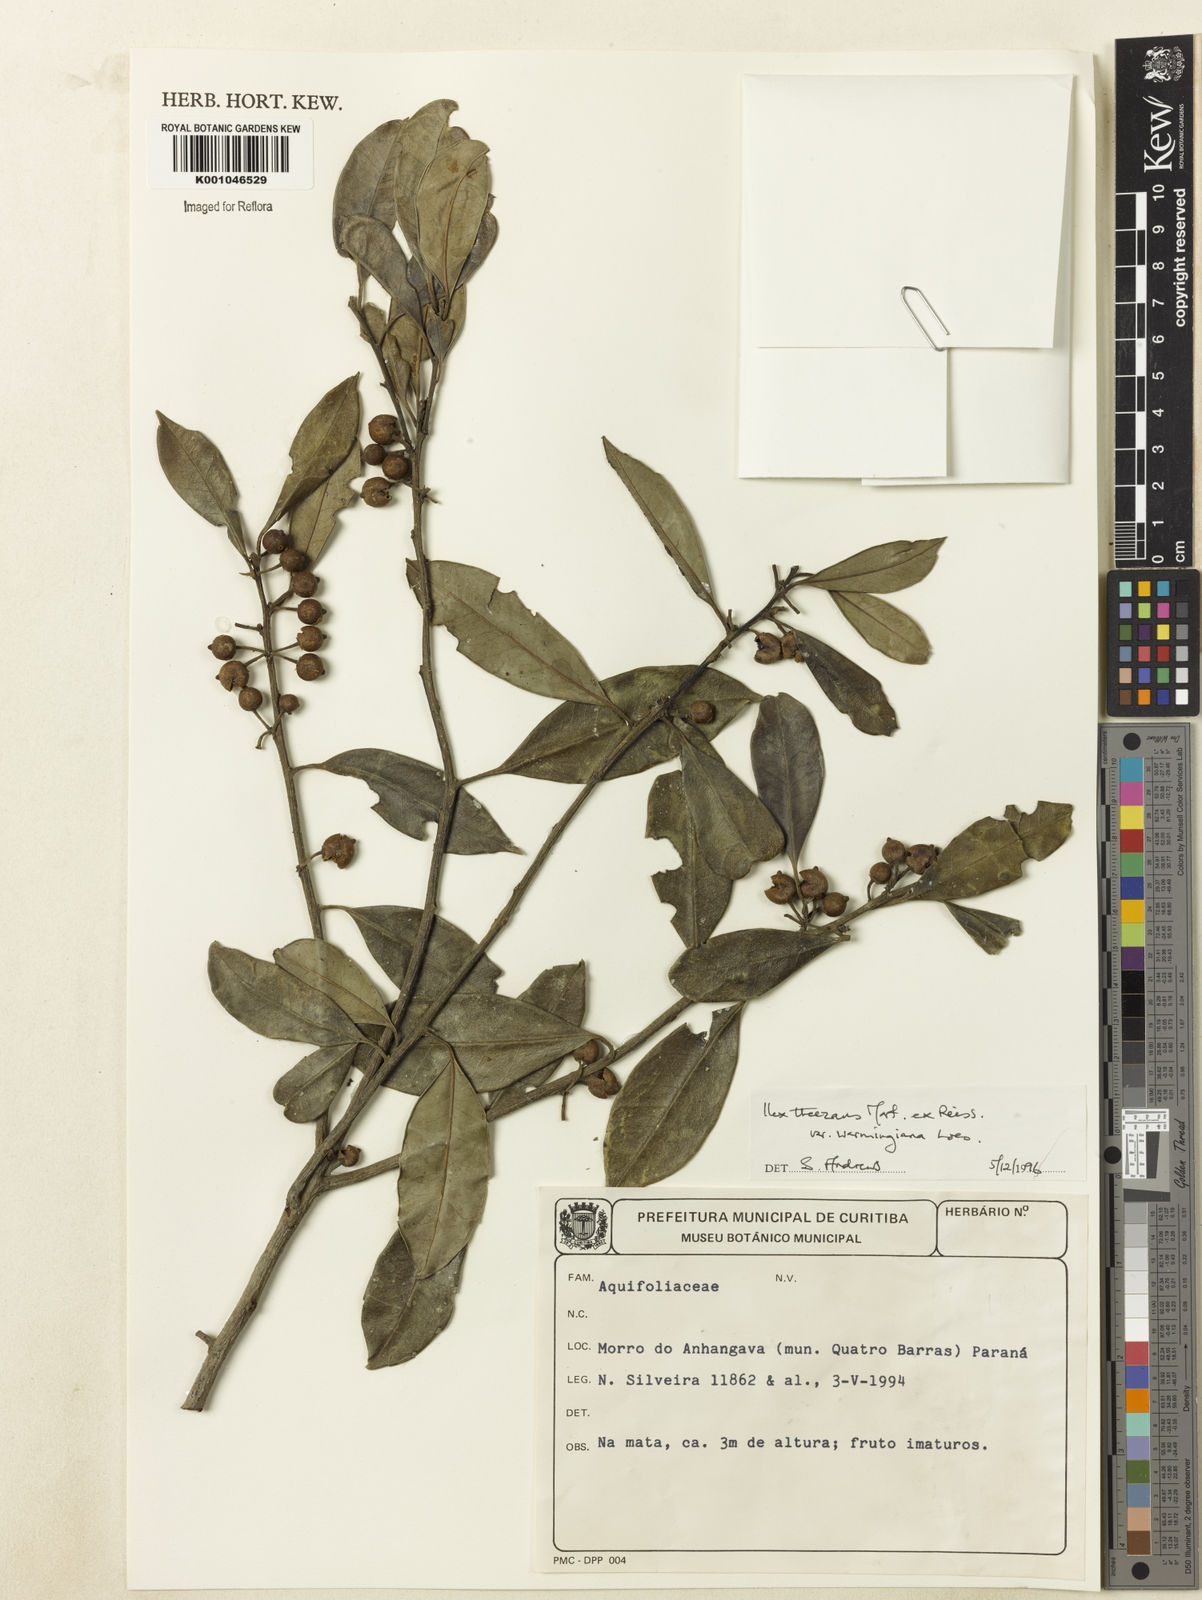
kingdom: Plantae
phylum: Tracheophyta
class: Magnoliopsida
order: Aquifoliales
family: Aquifoliaceae
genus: Ilex
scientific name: Ilex theezans
